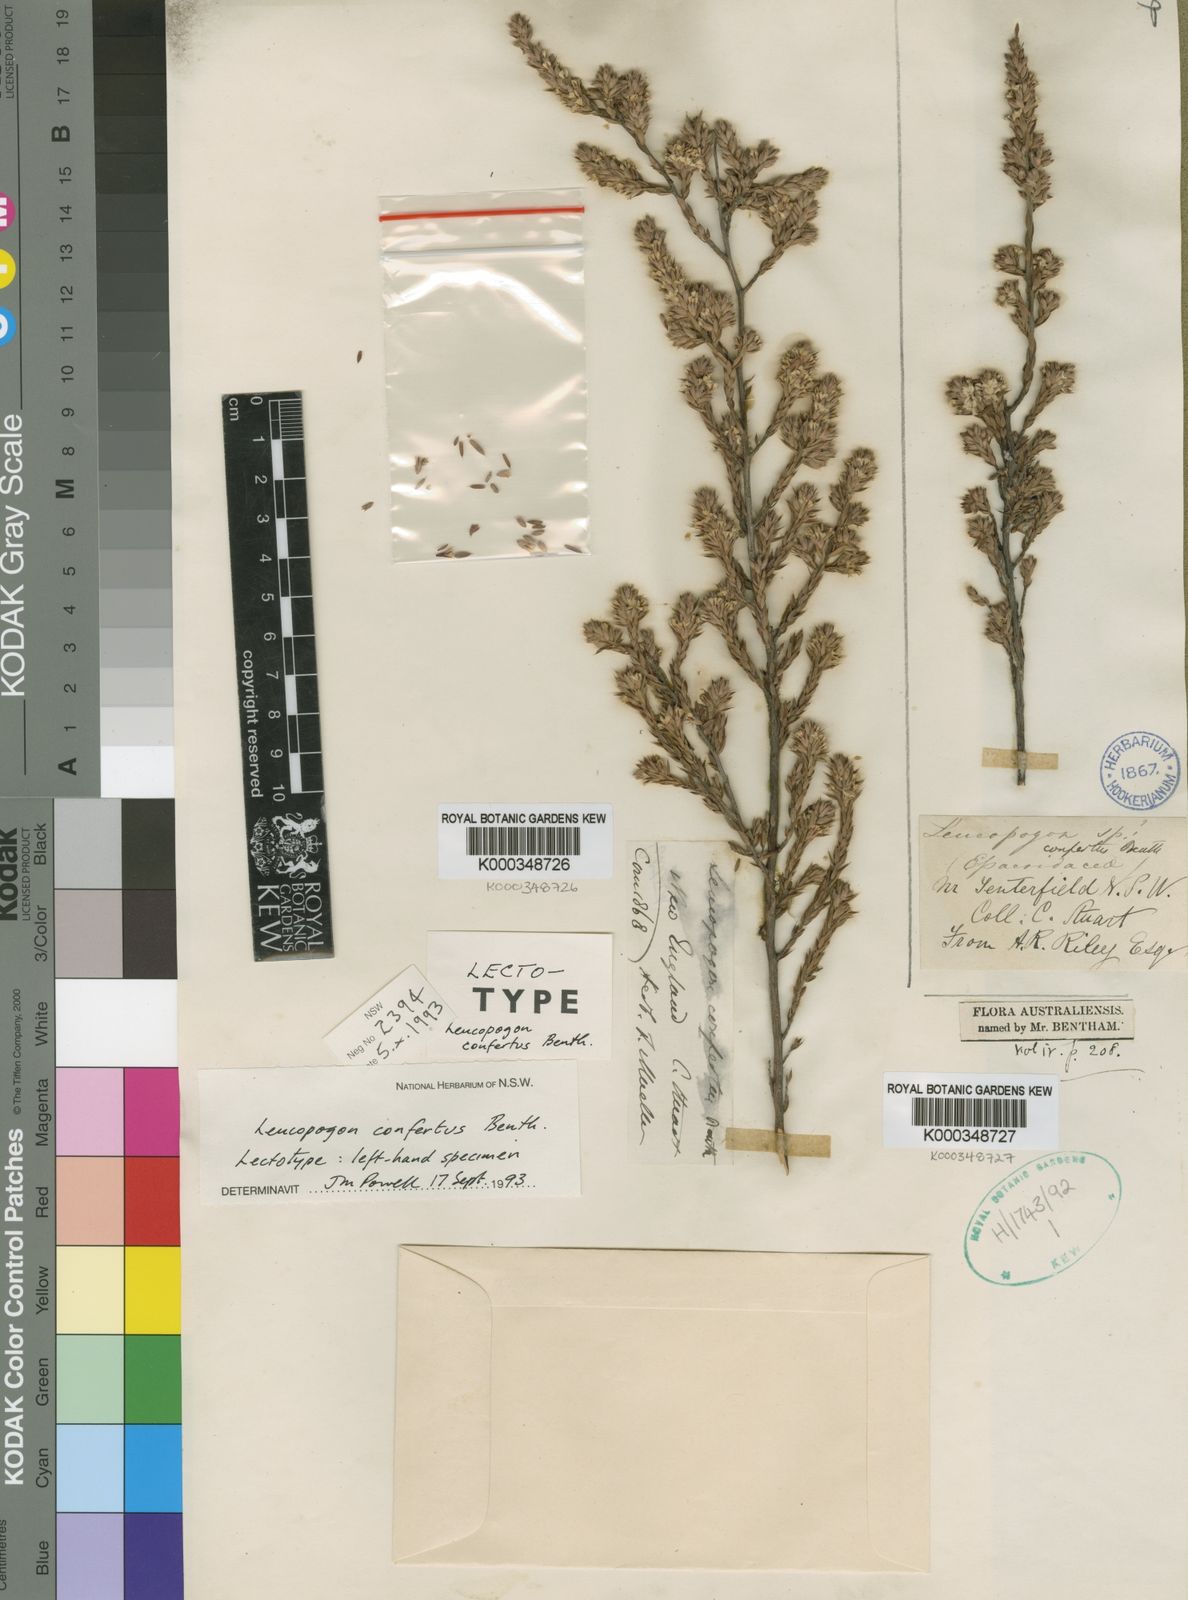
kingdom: Plantae
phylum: Tracheophyta
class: Magnoliopsida
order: Ericales
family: Ericaceae
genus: Styphelia
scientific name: Styphelia conferta
